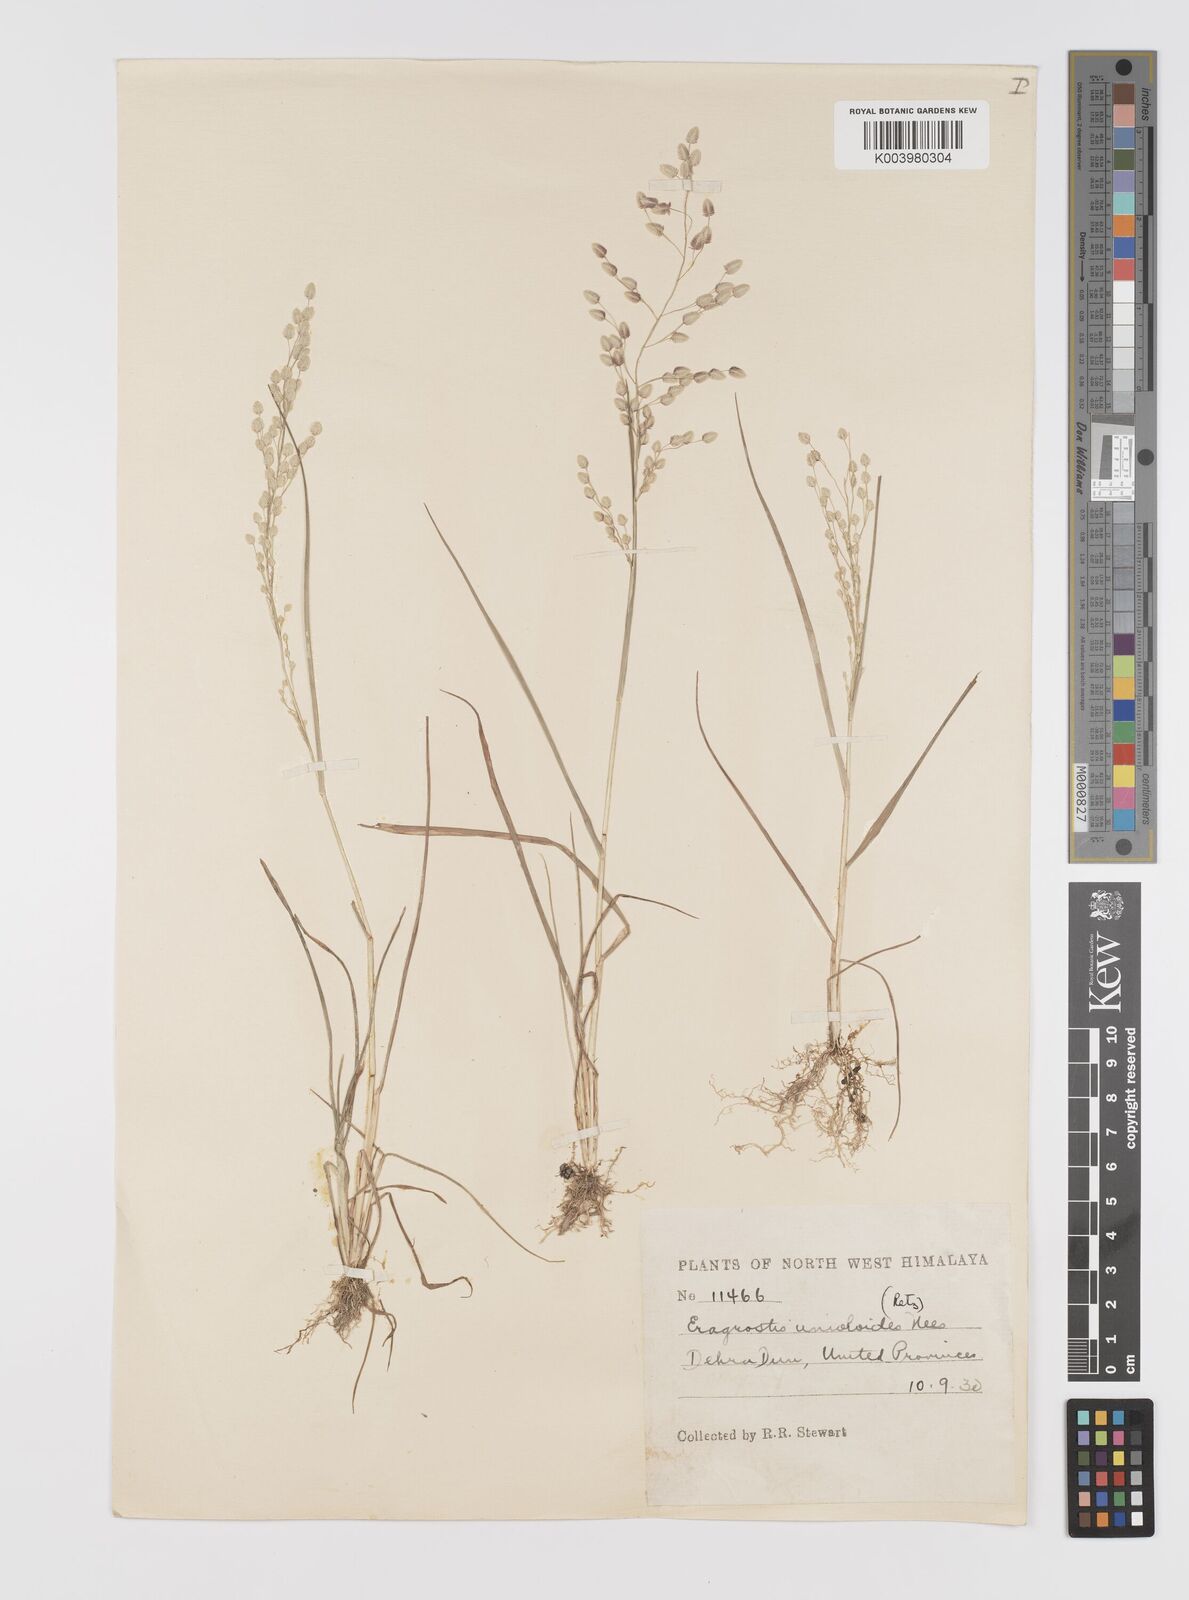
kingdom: Plantae
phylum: Tracheophyta
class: Liliopsida
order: Poales
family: Poaceae
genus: Eragrostis
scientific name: Eragrostis unioloides
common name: Chinese lovegrass
